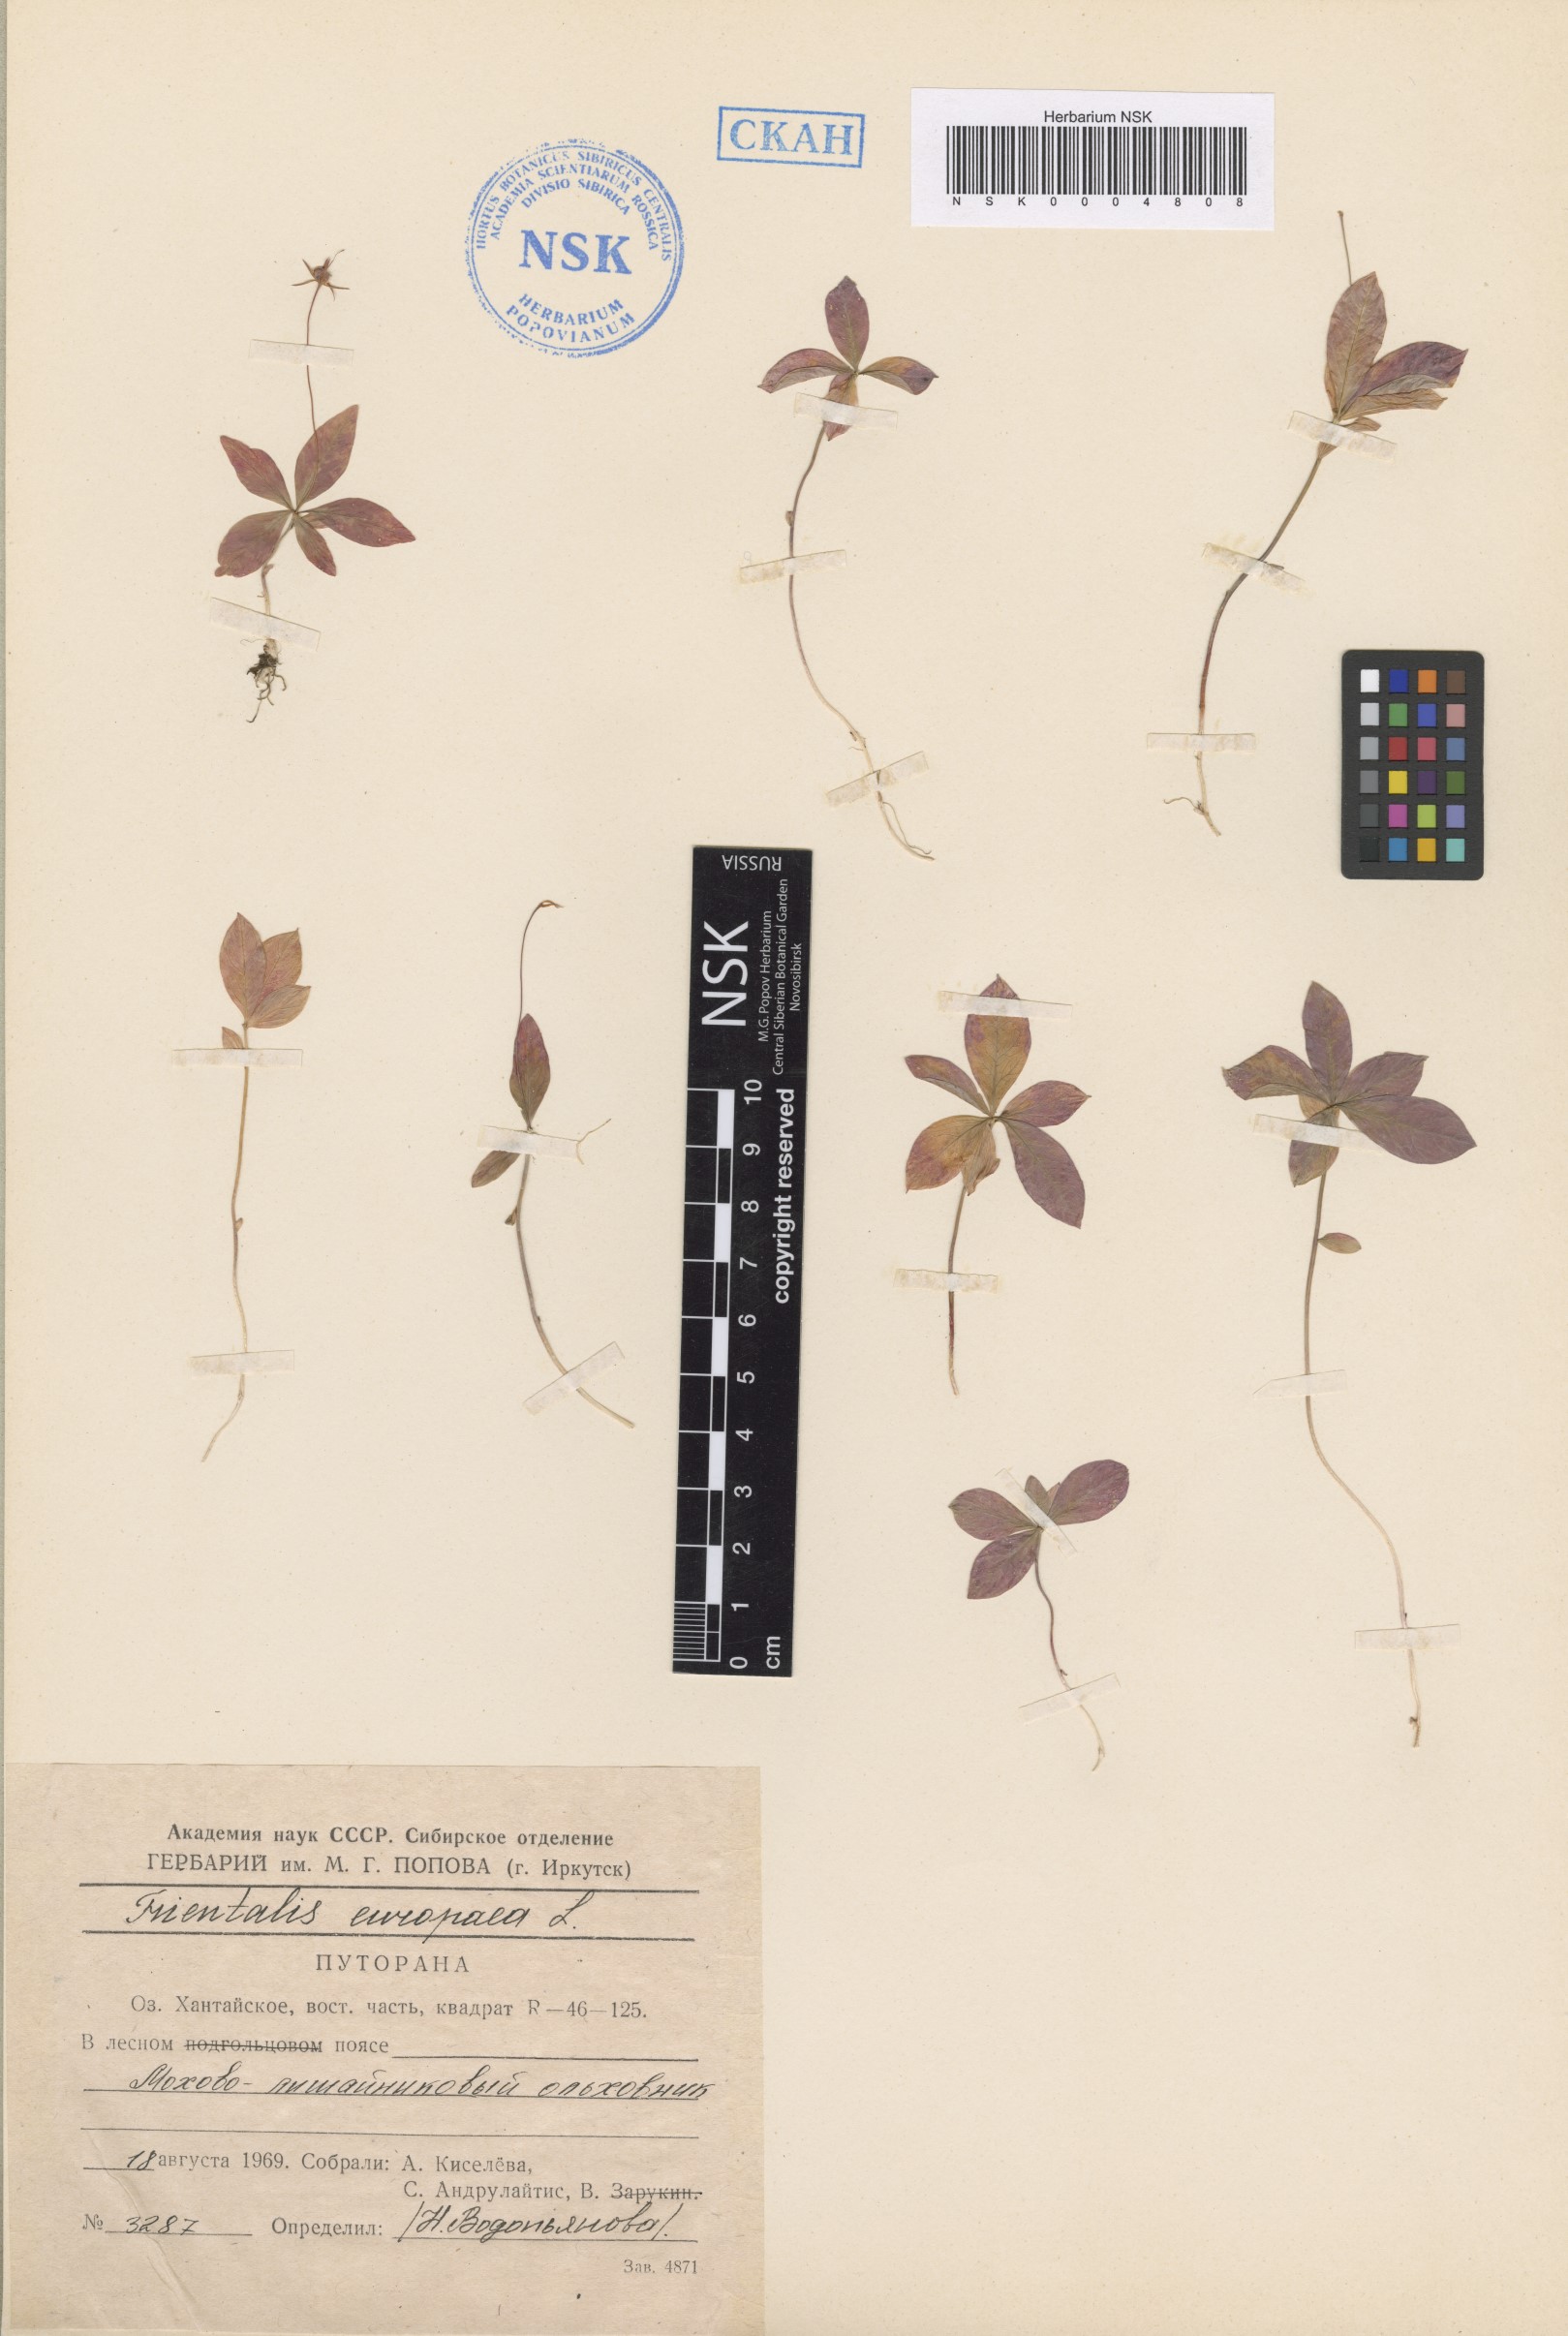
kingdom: Plantae
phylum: Tracheophyta
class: Magnoliopsida
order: Ericales
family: Primulaceae
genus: Lysimachia
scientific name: Lysimachia europaea
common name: Arctic starflower
